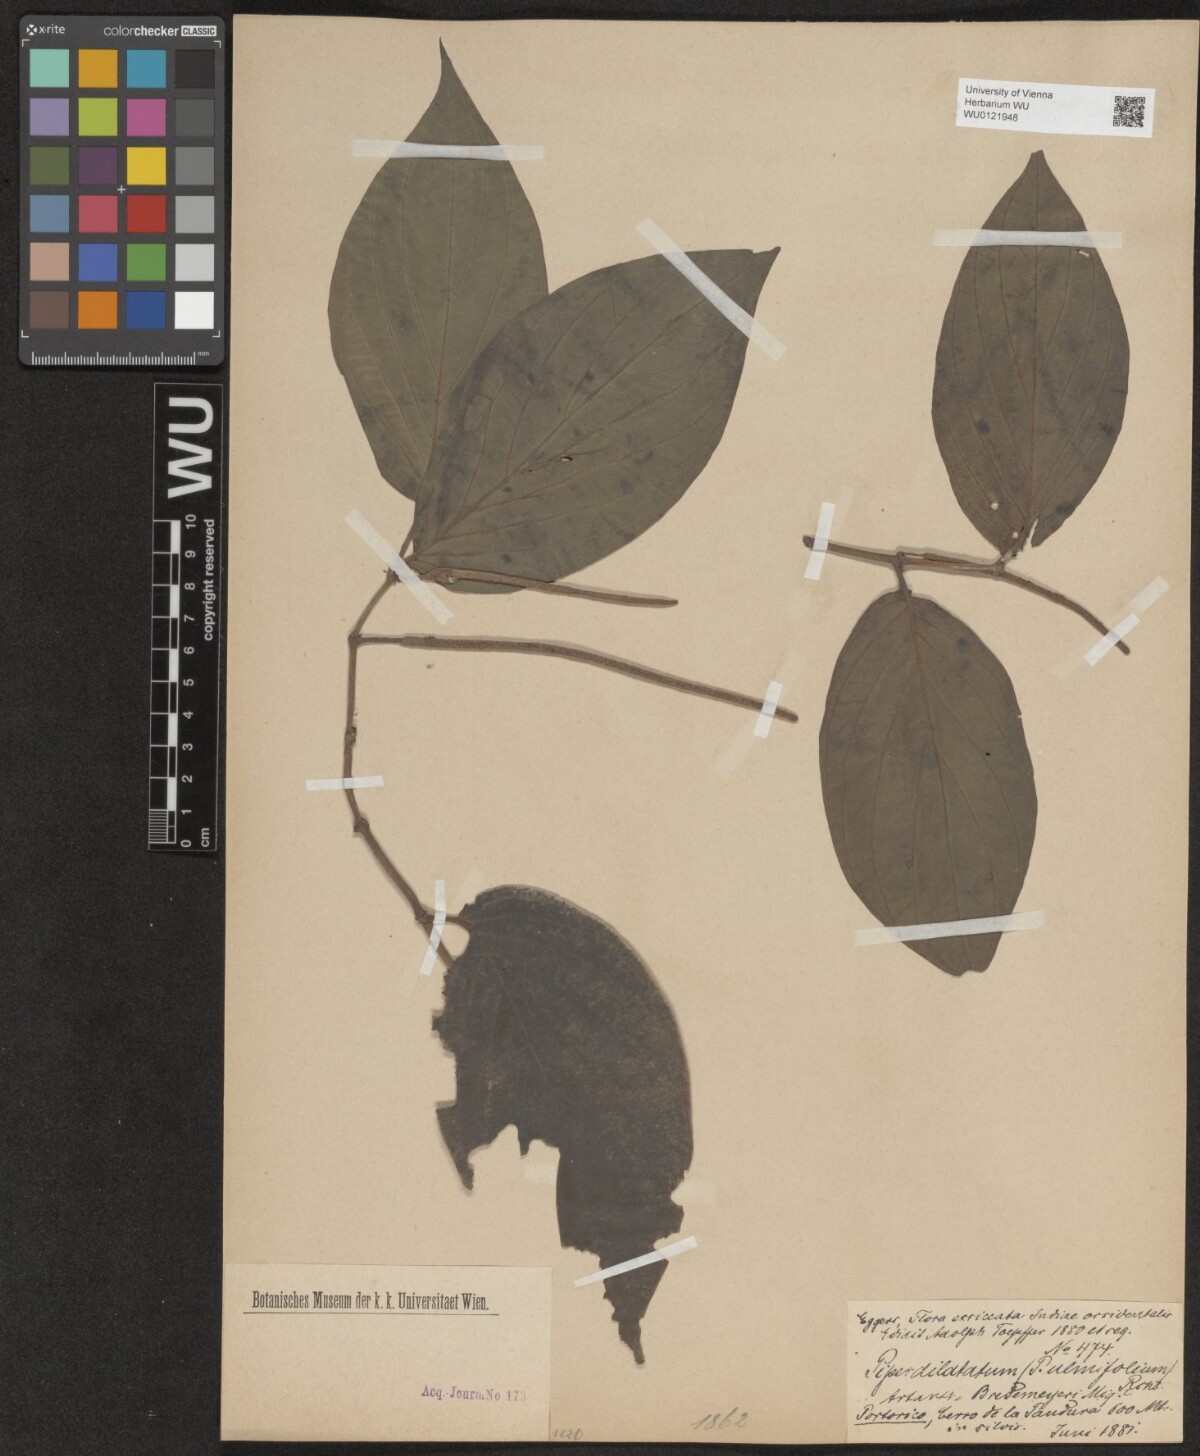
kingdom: Plantae
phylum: Tracheophyta
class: Magnoliopsida
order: Piperales
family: Piperaceae
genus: Piper
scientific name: Piper dilatatum
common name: Higuillo
